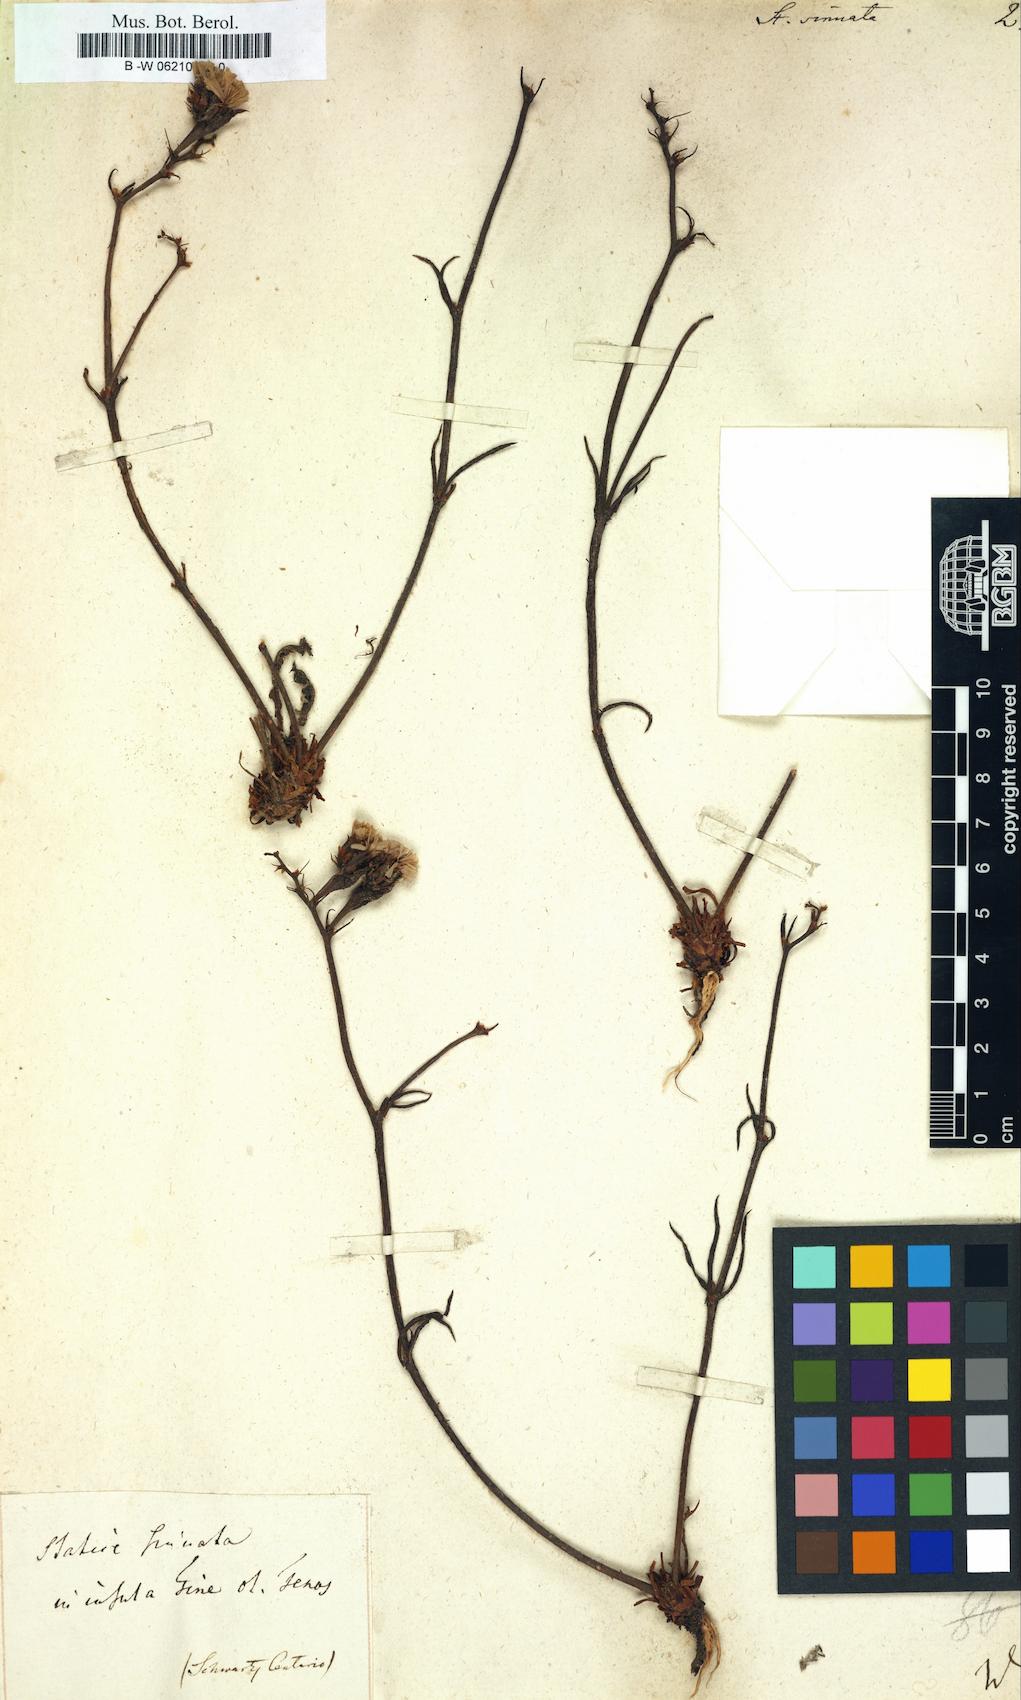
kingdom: Plantae
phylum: Tracheophyta
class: Magnoliopsida
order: Caryophyllales
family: Plumbaginaceae
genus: Limonium
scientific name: Limonium sinuatum
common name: Statice
